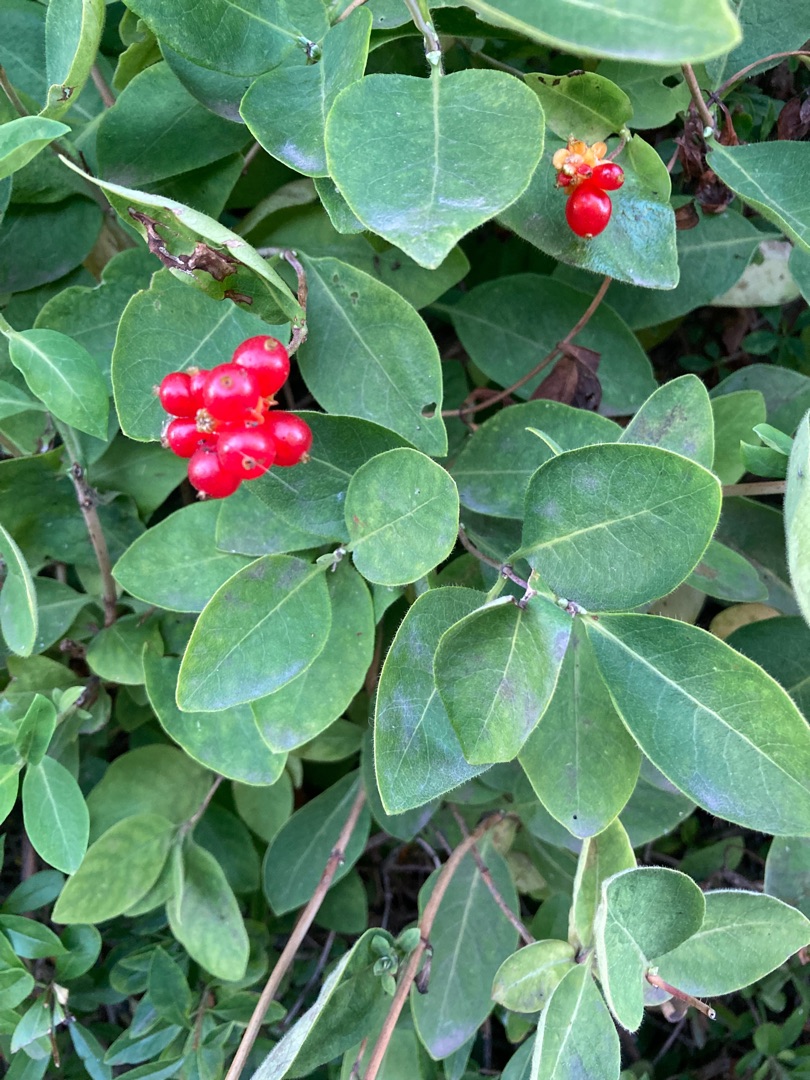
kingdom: Plantae
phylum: Tracheophyta
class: Magnoliopsida
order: Dipsacales
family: Caprifoliaceae
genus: Lonicera
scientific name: Lonicera periclymenum
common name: Almindelig gedeblad
